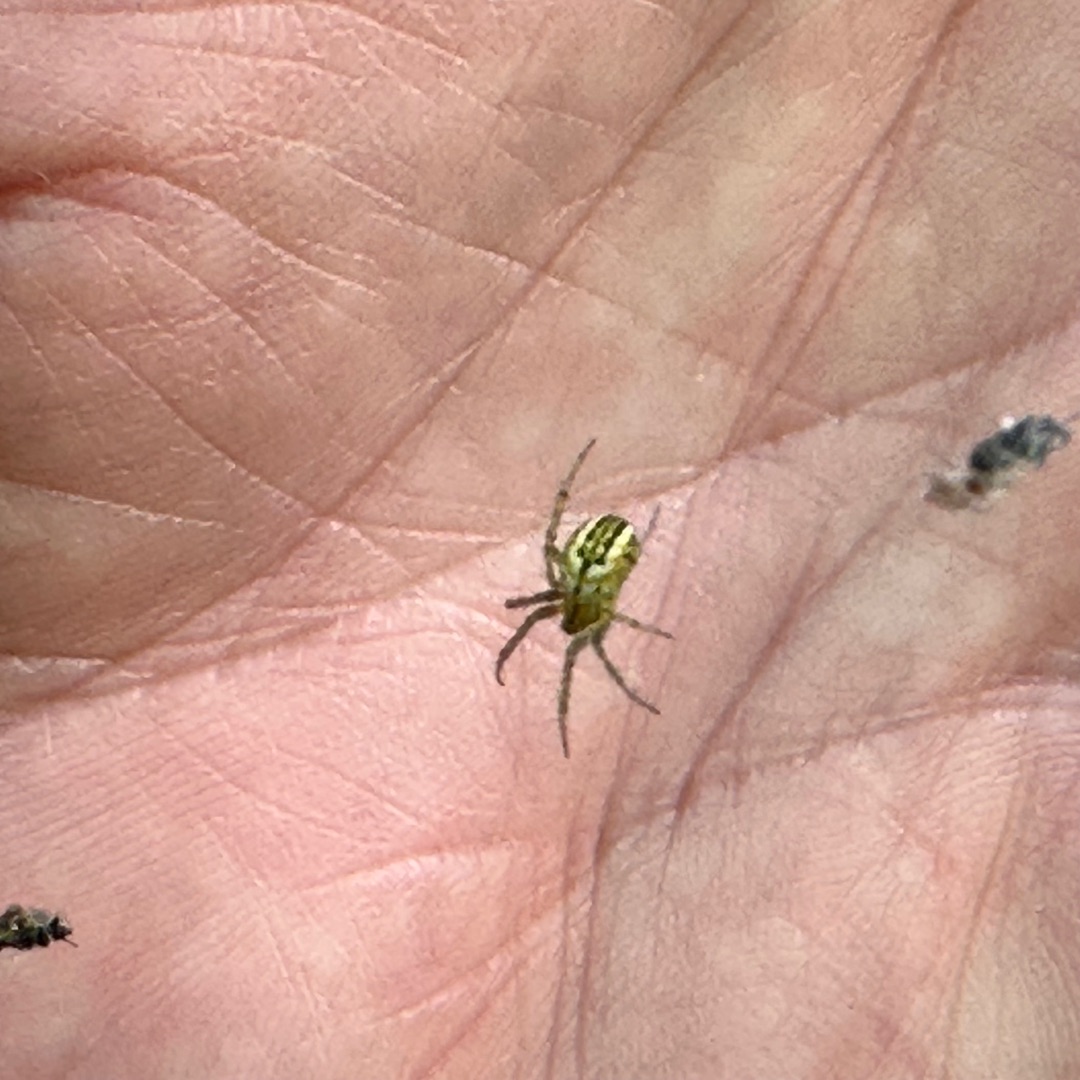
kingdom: Animalia
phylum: Arthropoda
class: Arachnida
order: Araneae
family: Araneidae
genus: Mangora
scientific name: Mangora acalypha
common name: Sortstribet hedehjulspinder
